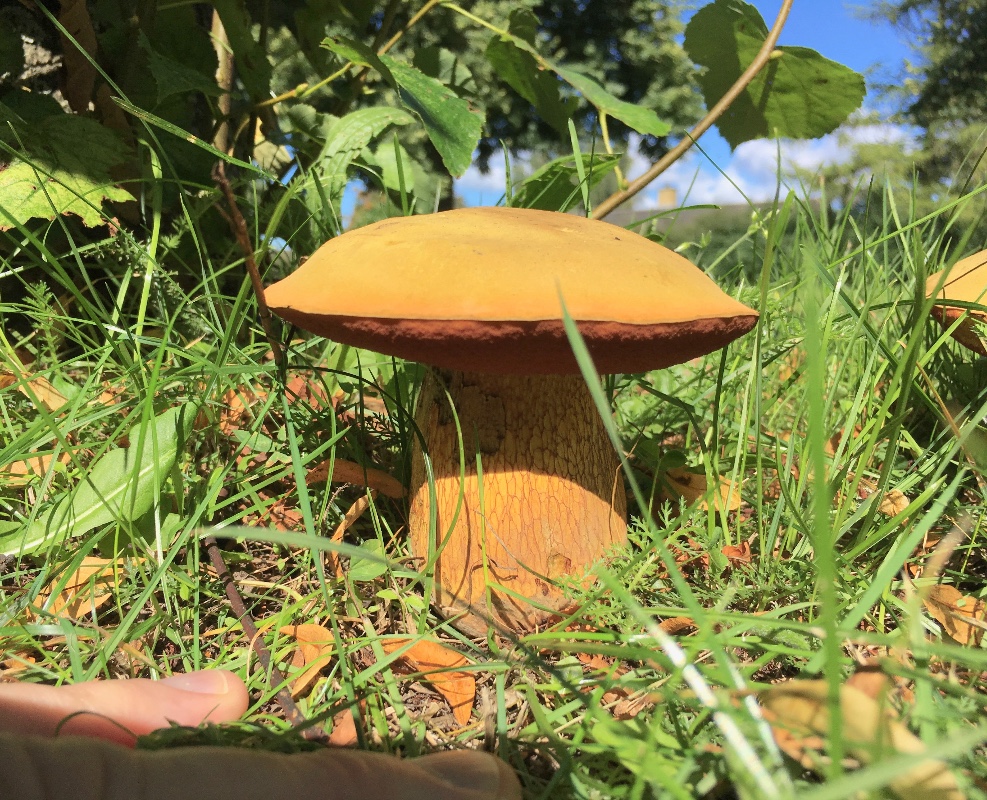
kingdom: Fungi
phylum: Basidiomycota
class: Agaricomycetes
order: Boletales
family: Boletaceae
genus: Suillellus
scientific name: Suillellus luridus
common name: netstokket indigorørhat
